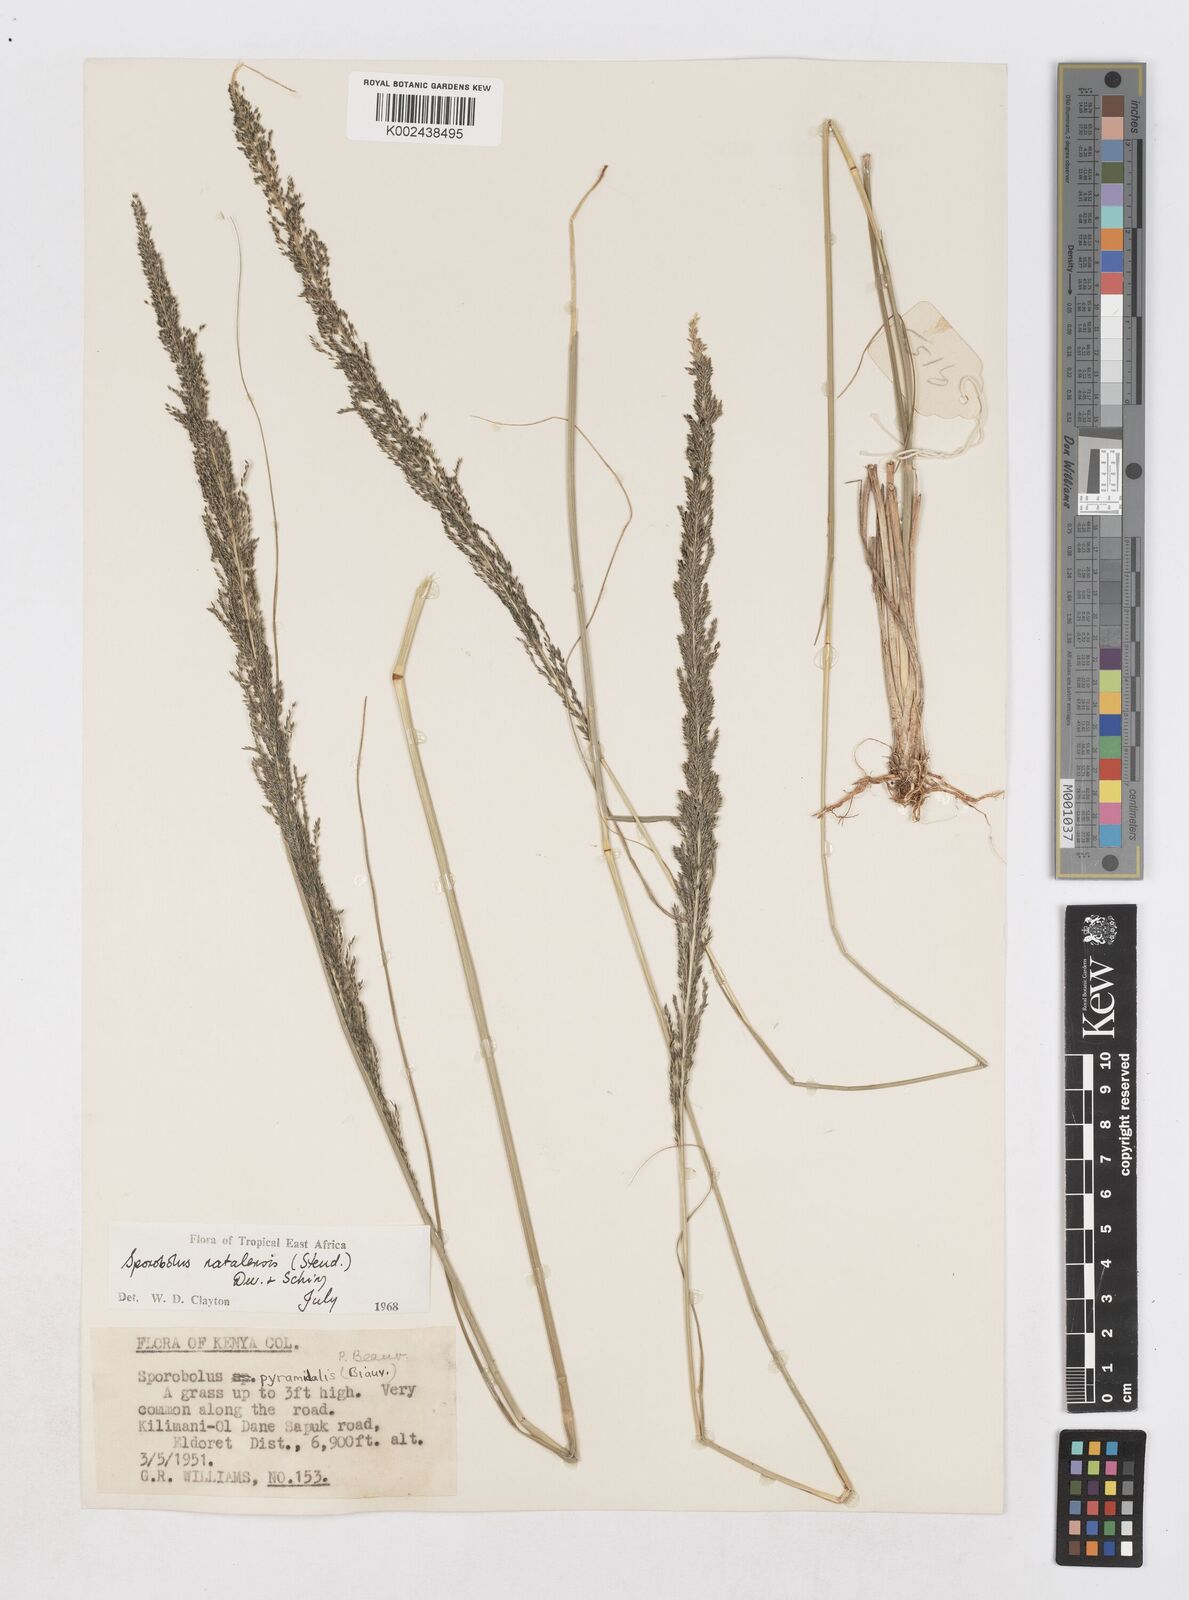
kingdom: Plantae
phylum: Tracheophyta
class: Liliopsida
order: Poales
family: Poaceae
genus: Sporobolus
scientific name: Sporobolus natalensis
